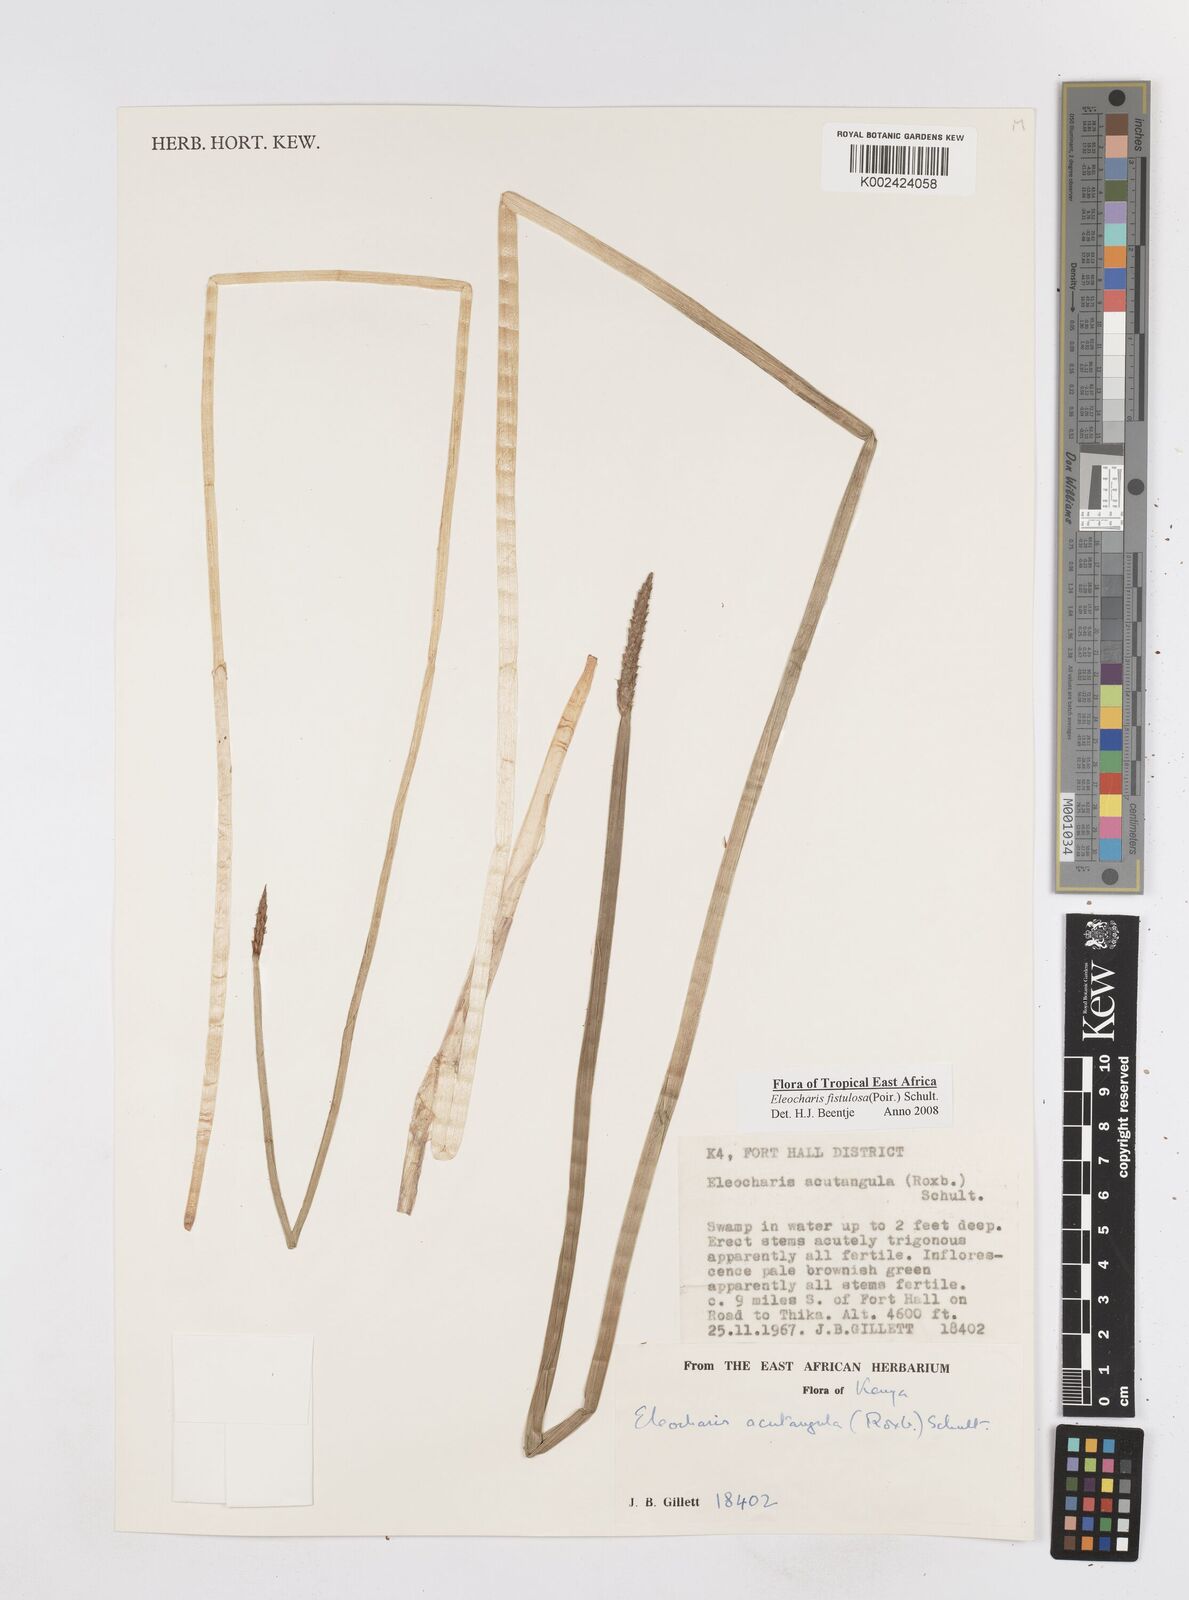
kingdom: Plantae
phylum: Tracheophyta
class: Liliopsida
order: Poales
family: Cyperaceae
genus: Eleocharis
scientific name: Eleocharis acutangula
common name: Acute spikerush
